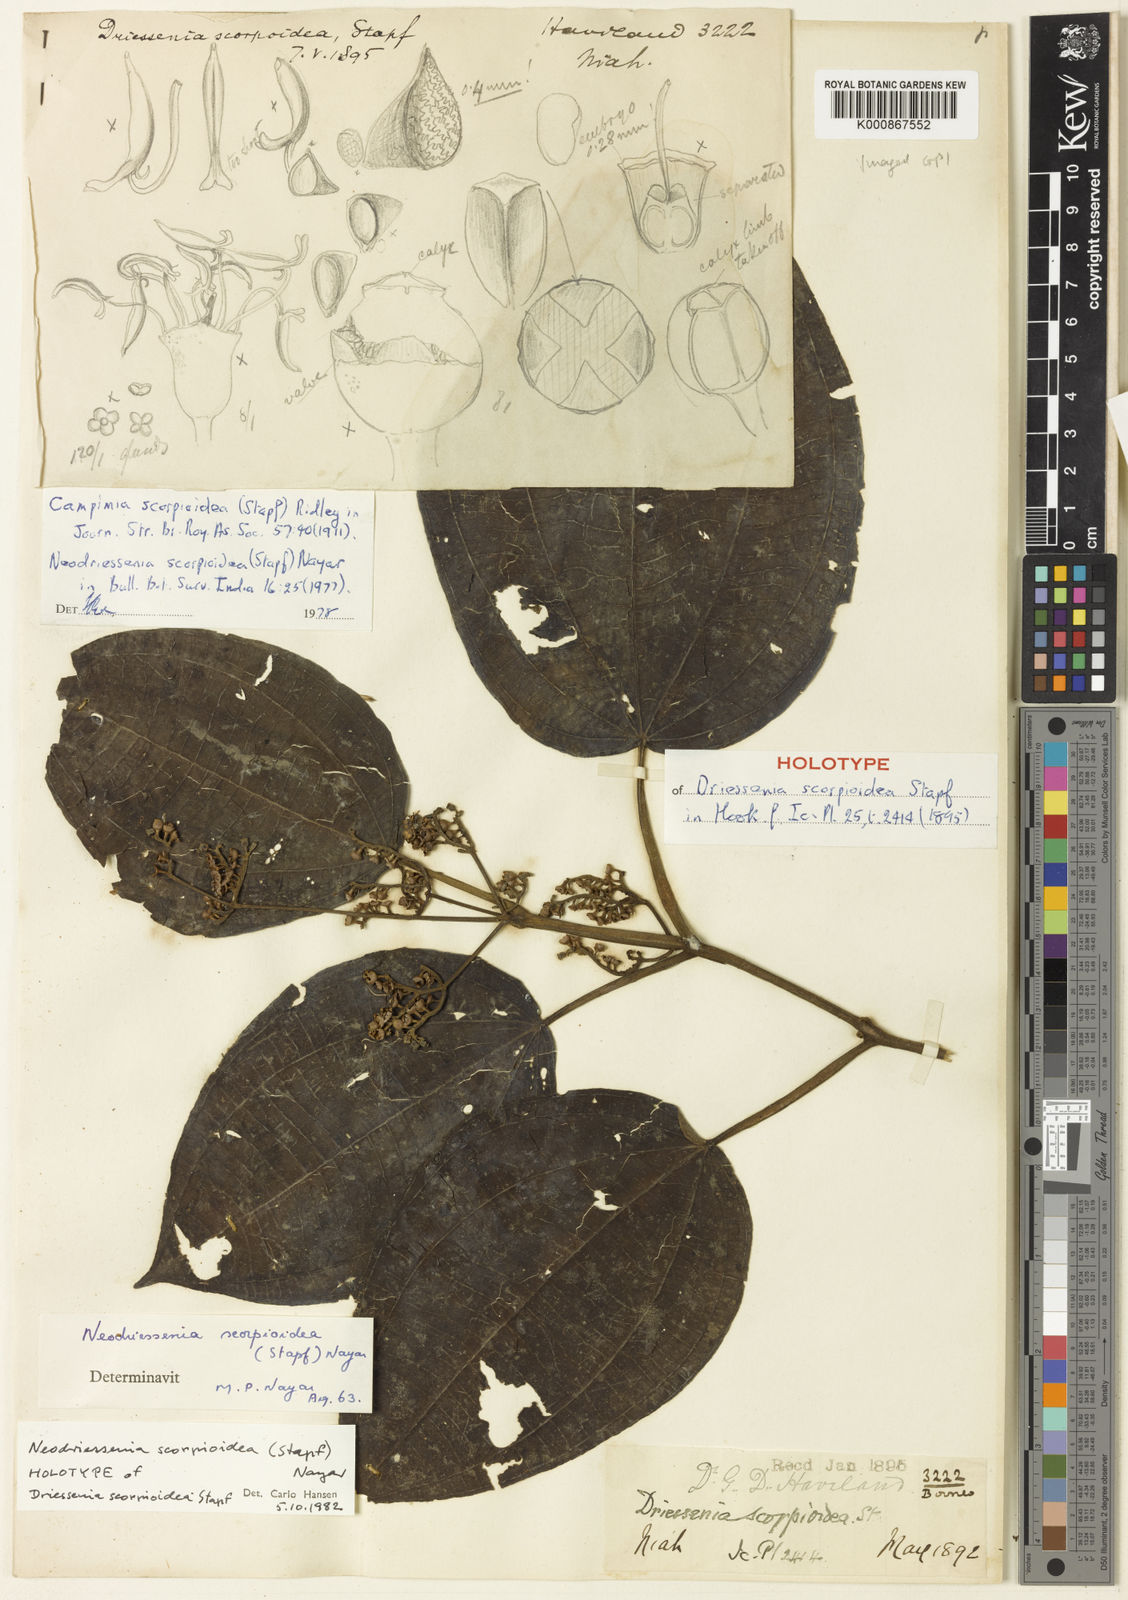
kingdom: Plantae
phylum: Tracheophyta
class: Magnoliopsida
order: Myrtales
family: Melastomataceae
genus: Neodriessenia
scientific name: Neodriessenia scorpioidea
